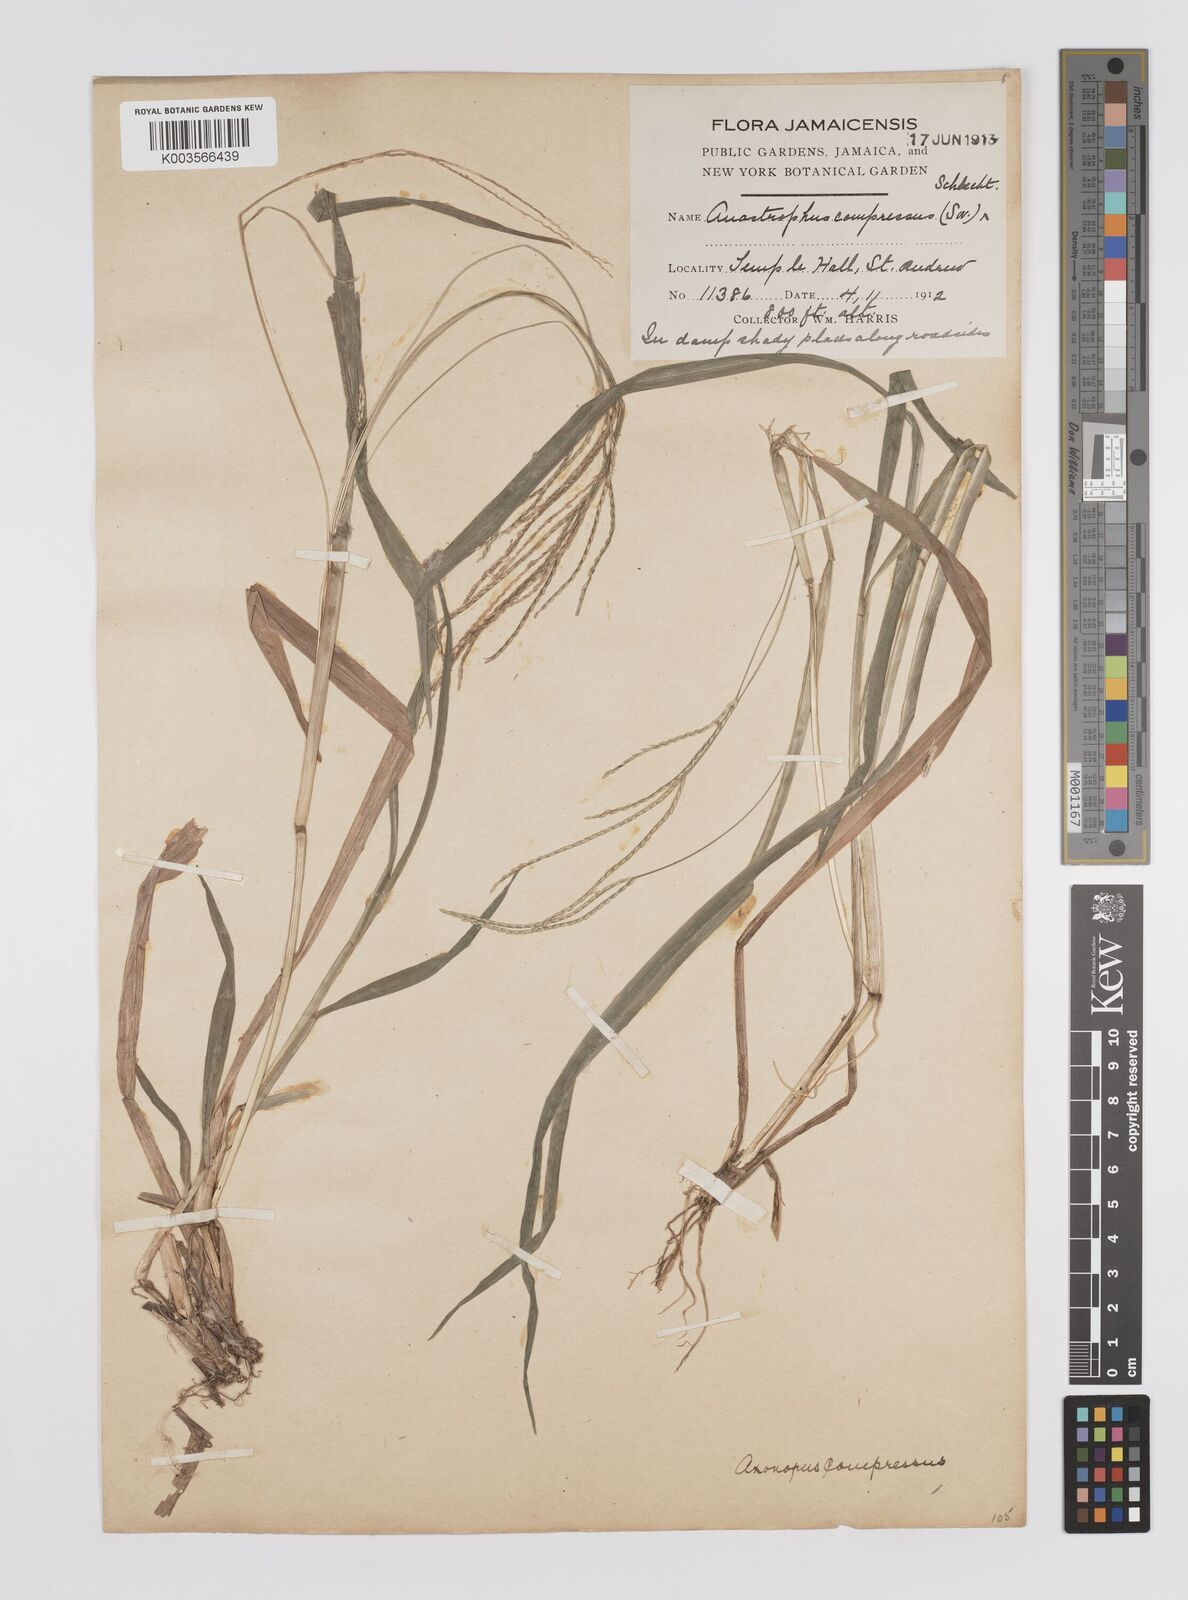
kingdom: Plantae
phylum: Tracheophyta
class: Liliopsida
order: Poales
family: Poaceae
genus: Axonopus
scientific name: Axonopus compressus
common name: American carpet grass
